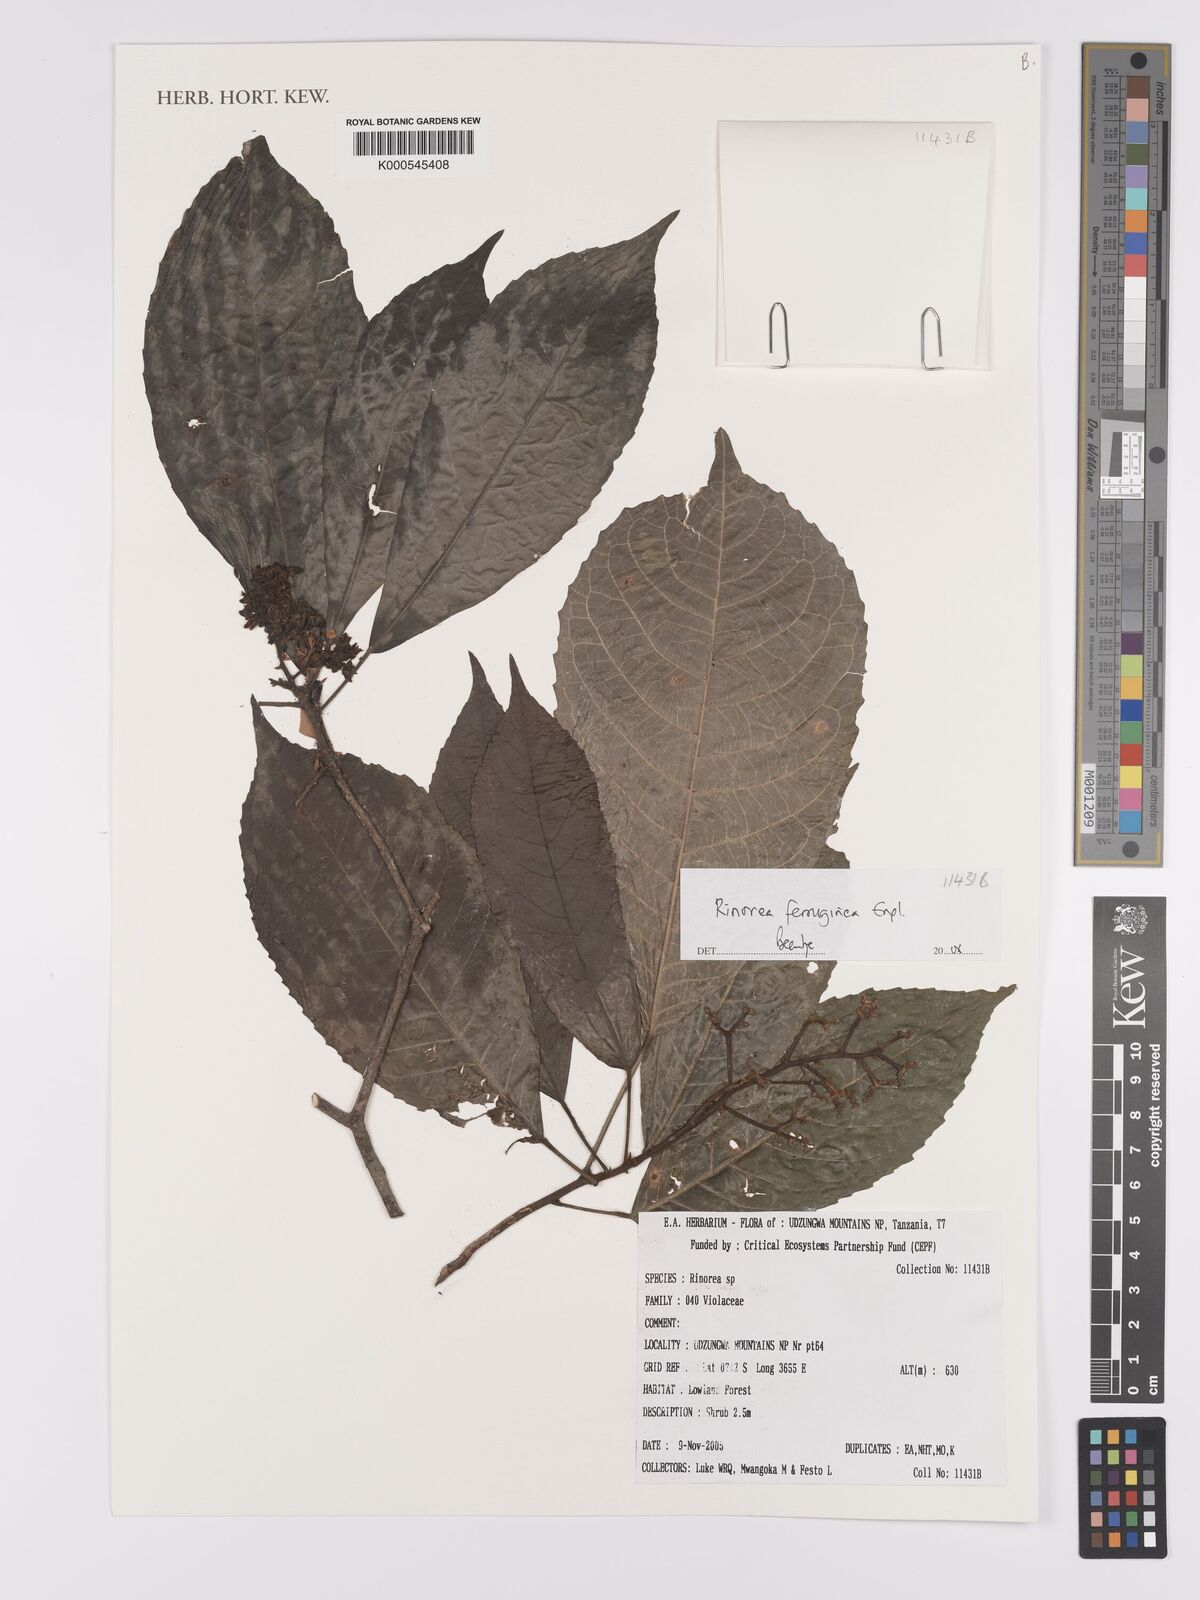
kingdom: Plantae
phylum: Tracheophyta
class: Magnoliopsida
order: Malpighiales
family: Violaceae
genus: Rinorea
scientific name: Rinorea ferruginea
